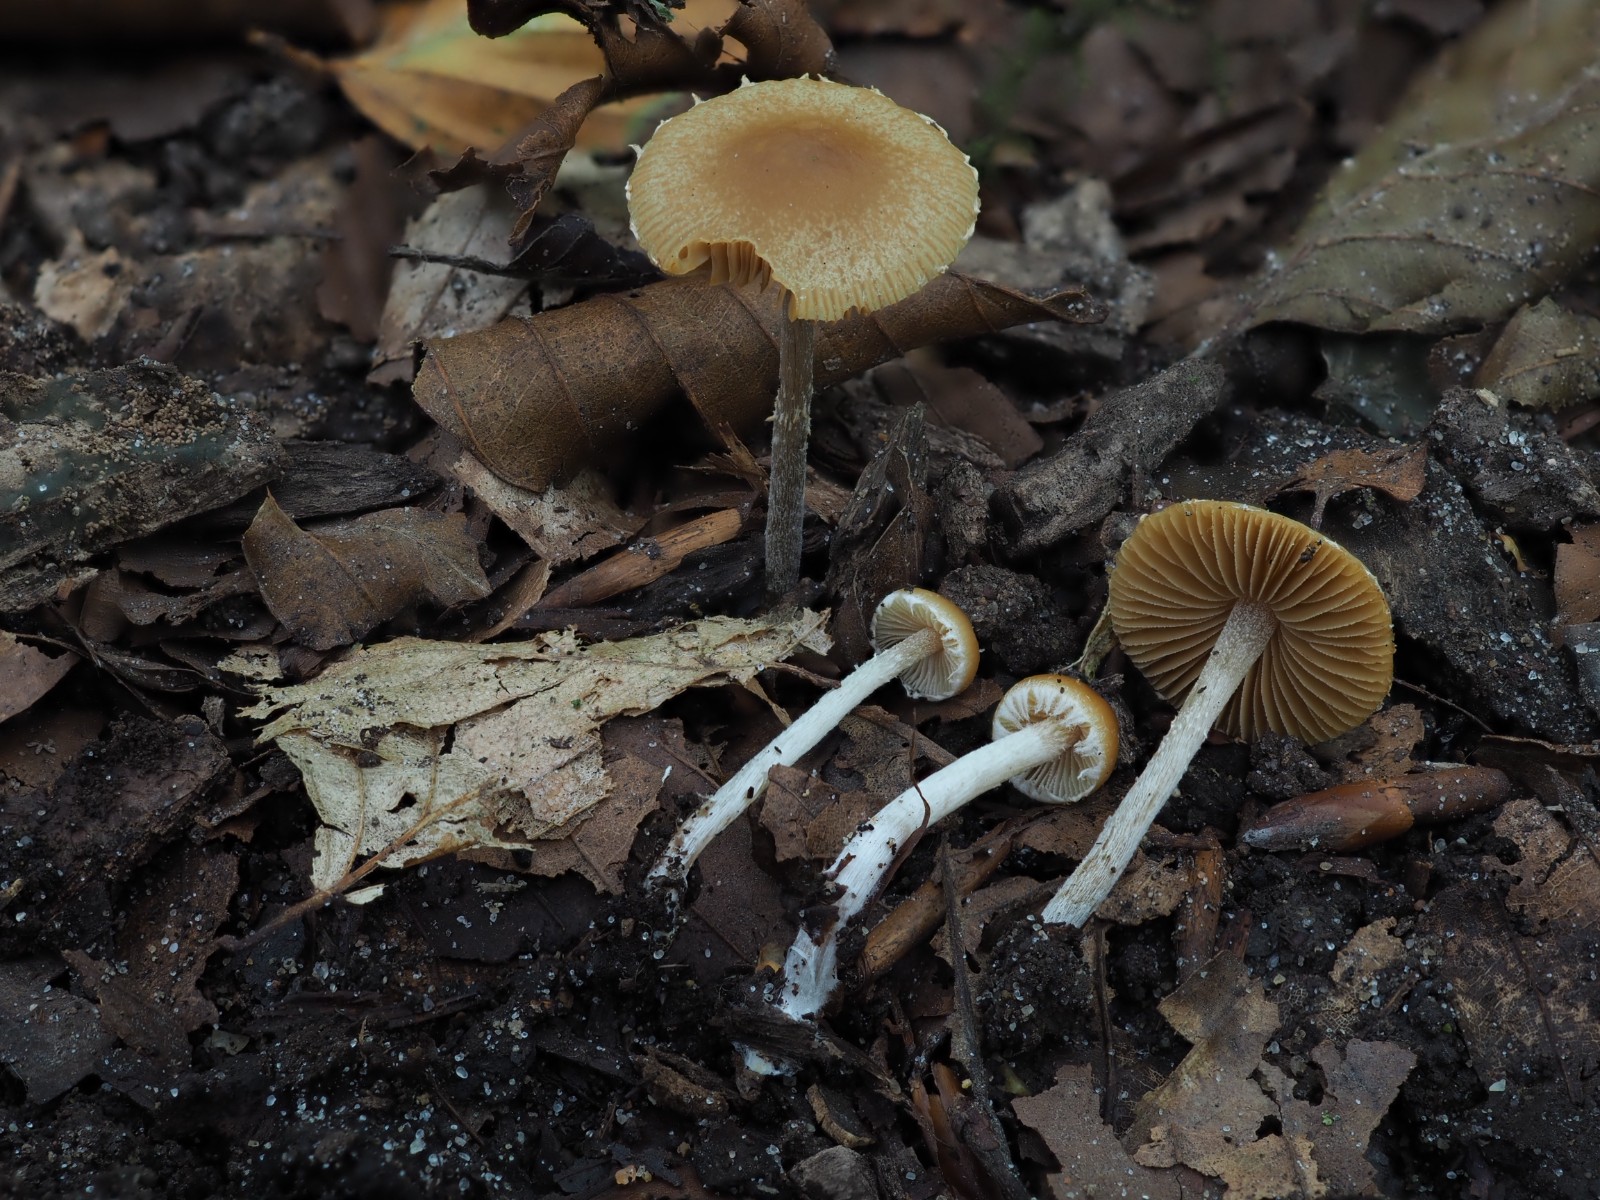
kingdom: Fungi
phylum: Basidiomycota
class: Agaricomycetes
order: Agaricales
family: Bolbitiaceae
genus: Conocybe
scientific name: Conocybe velata
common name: tandet dansehat
